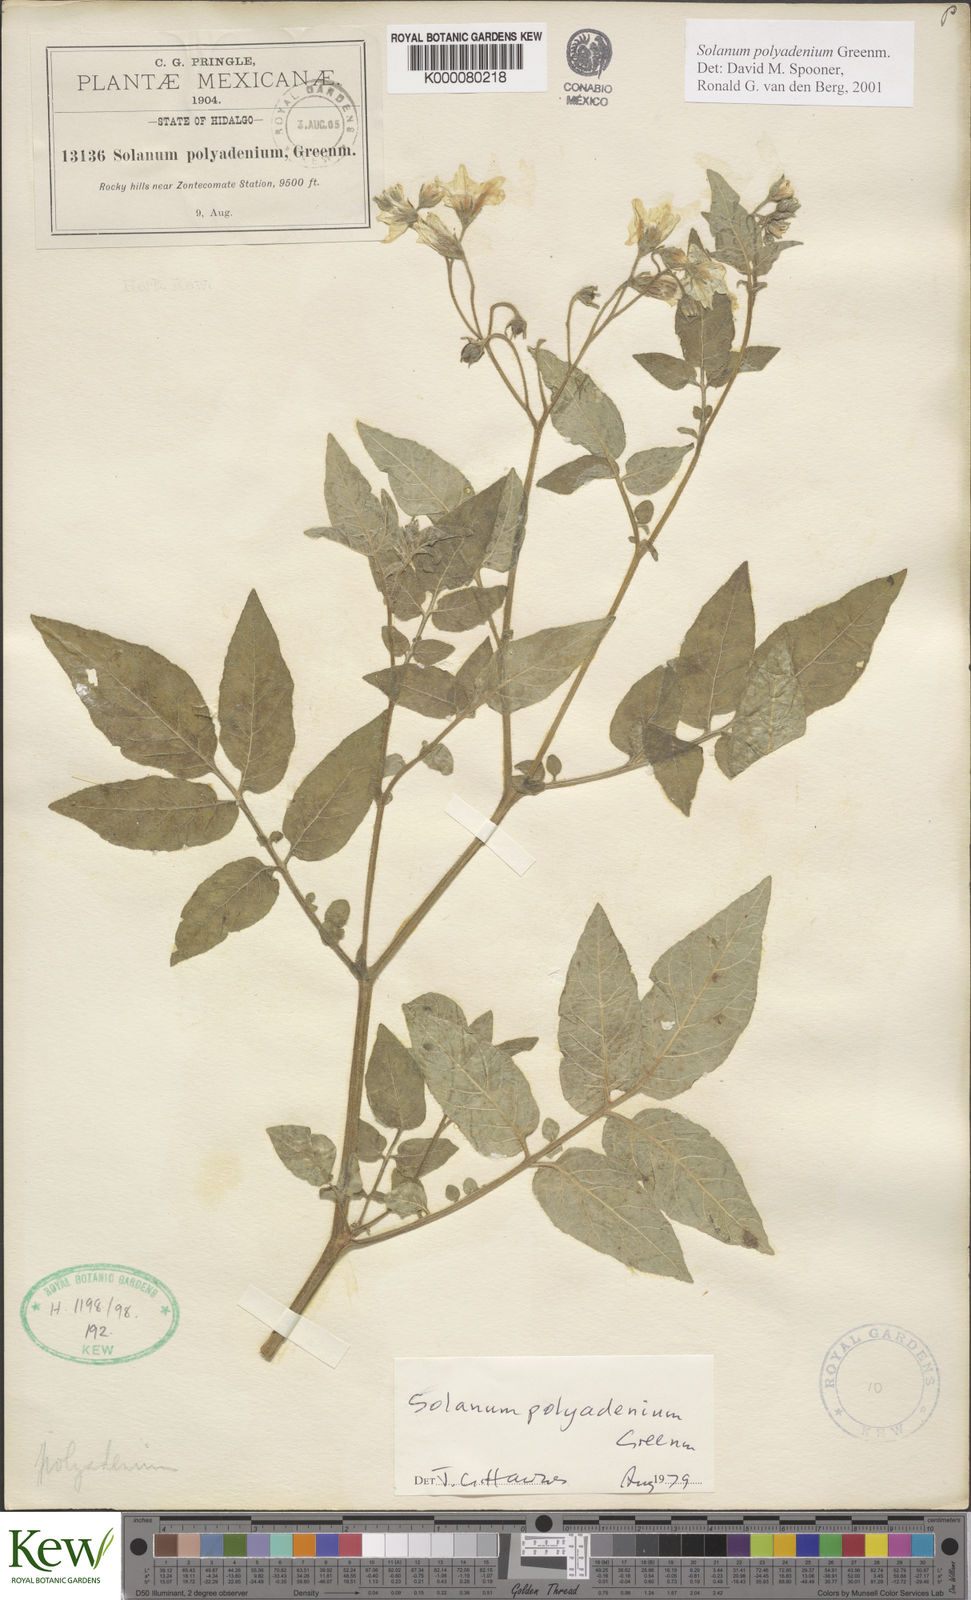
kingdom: Plantae
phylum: Tracheophyta
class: Magnoliopsida
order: Solanales
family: Solanaceae
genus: Solanum
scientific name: Solanum polyadenium
